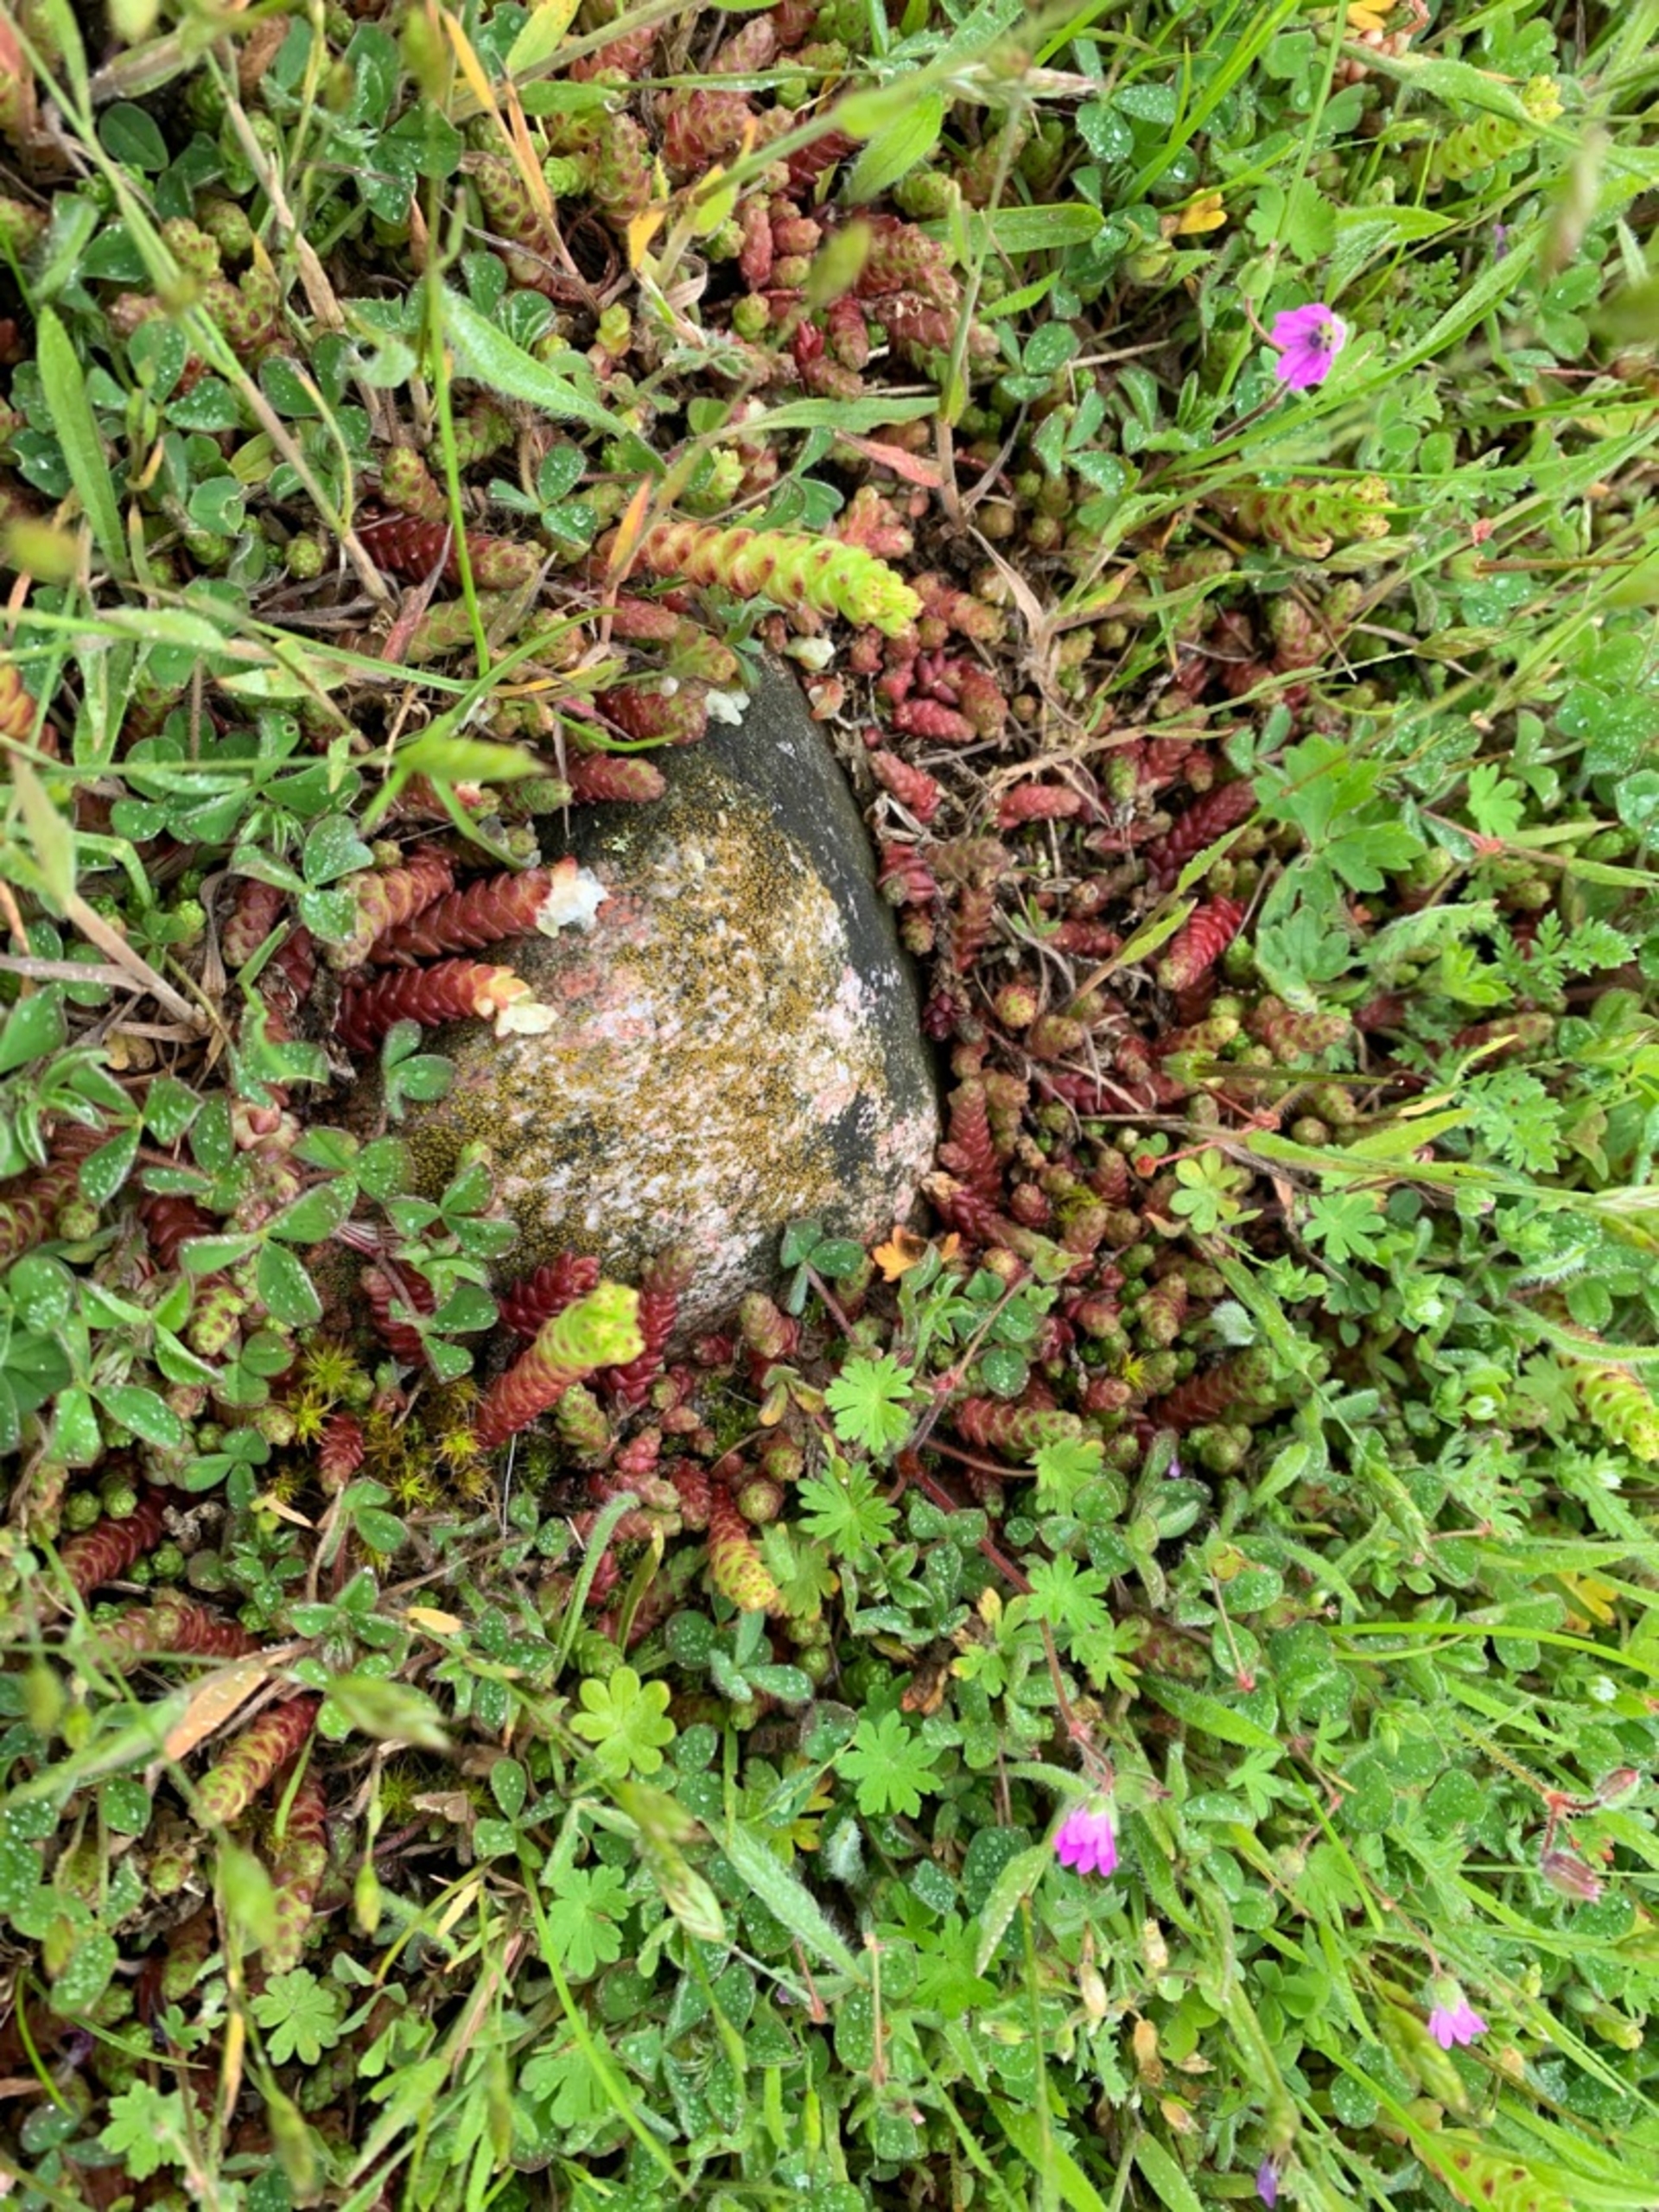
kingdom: Plantae
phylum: Tracheophyta
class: Magnoliopsida
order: Saxifragales
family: Crassulaceae
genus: Sedum
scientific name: Sedum acre
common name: Bidende stenurt
